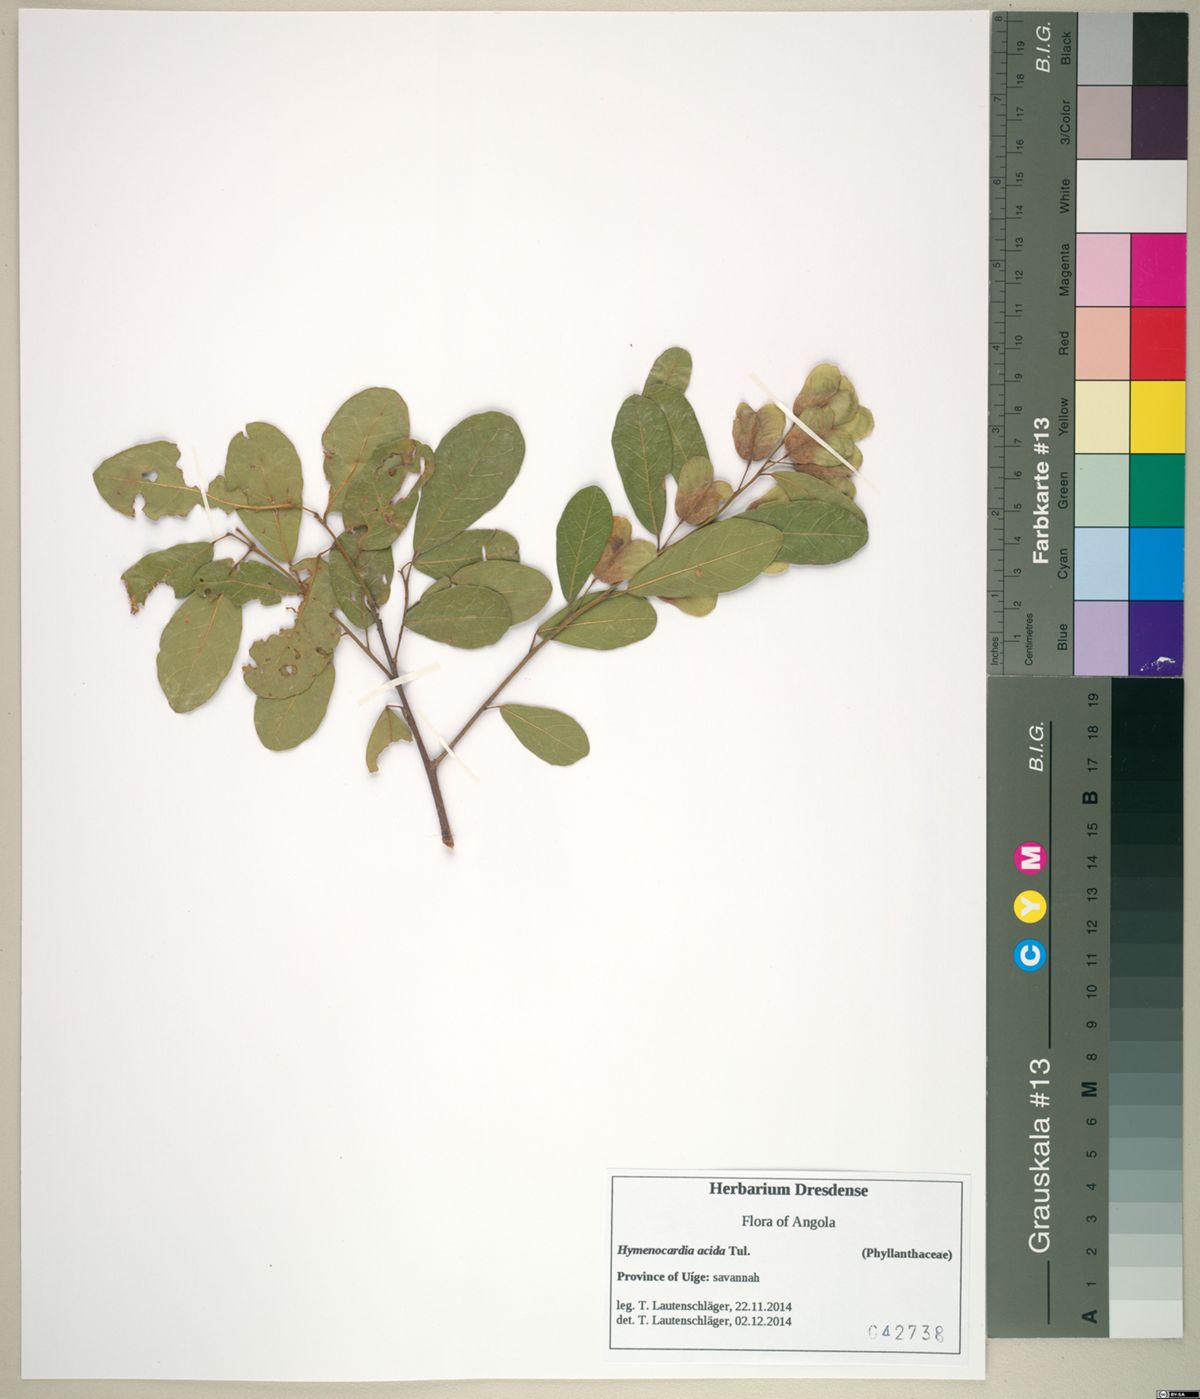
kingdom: Plantae
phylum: Tracheophyta
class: Magnoliopsida
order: Malpighiales
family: Phyllanthaceae
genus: Hymenocardia
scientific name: Hymenocardia acida
